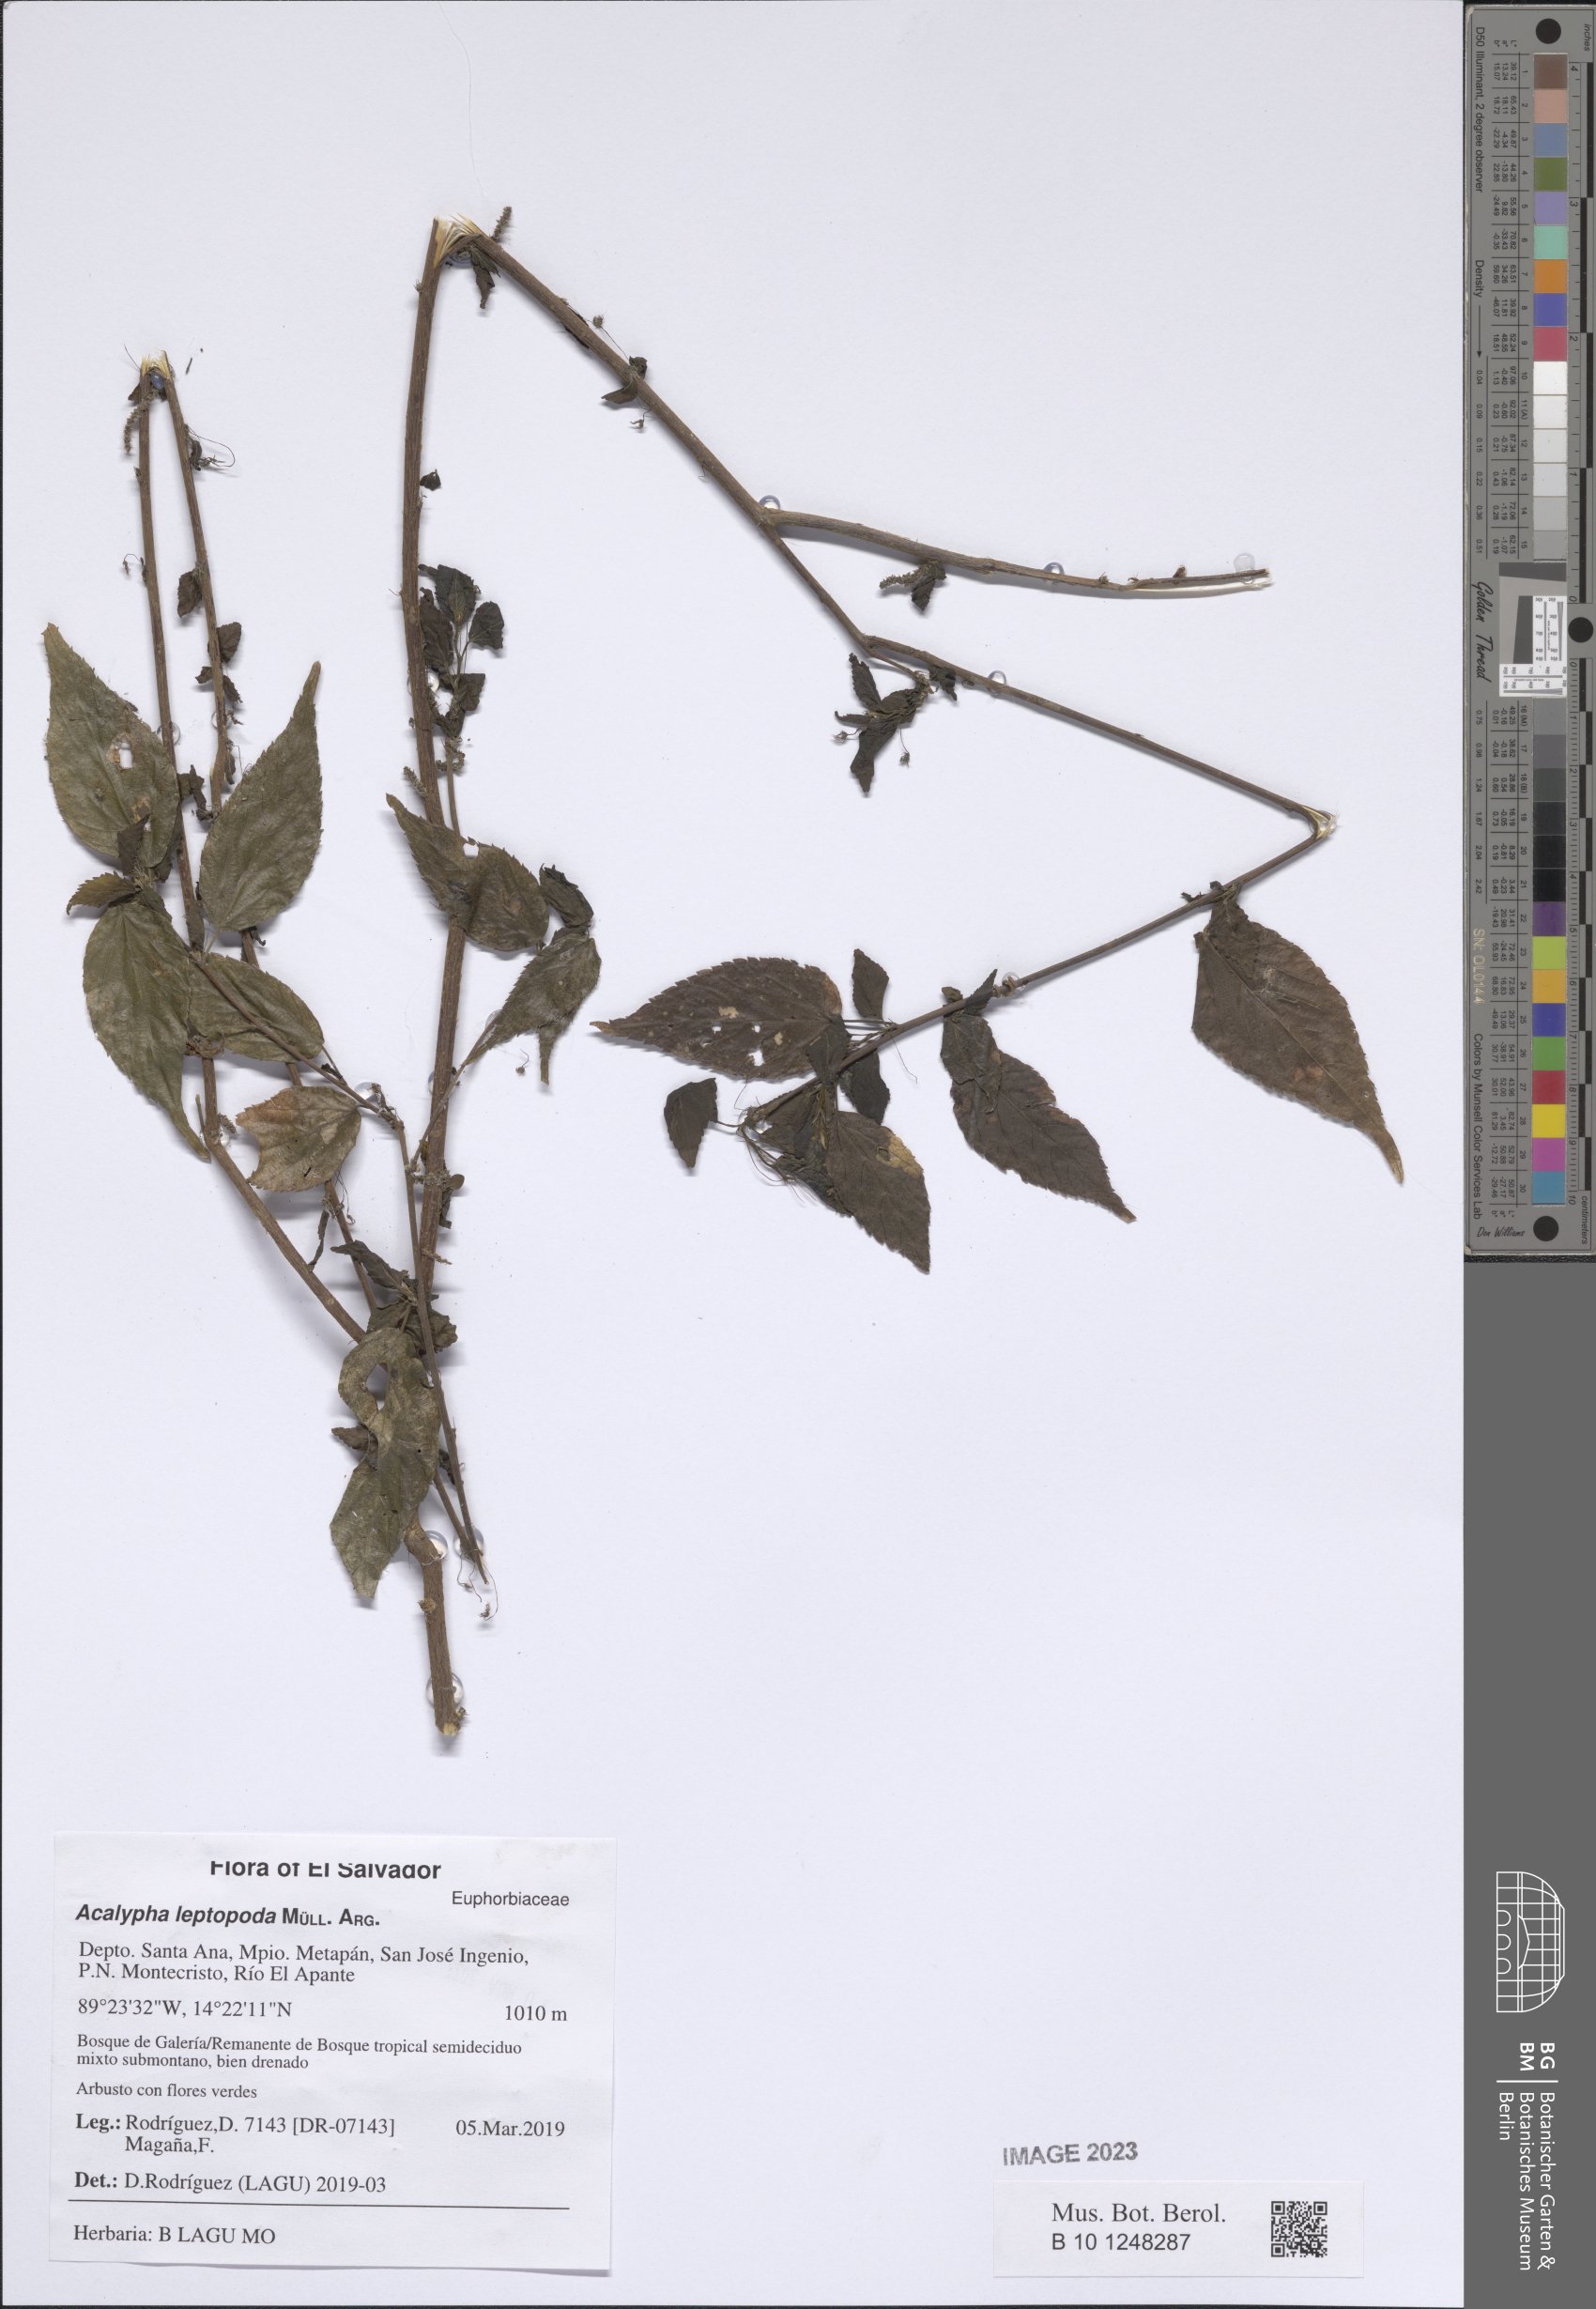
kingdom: Plantae
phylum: Tracheophyta
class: Magnoliopsida
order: Malpighiales
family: Euphorbiaceae
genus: Acalypha
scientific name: Acalypha leptopoda
